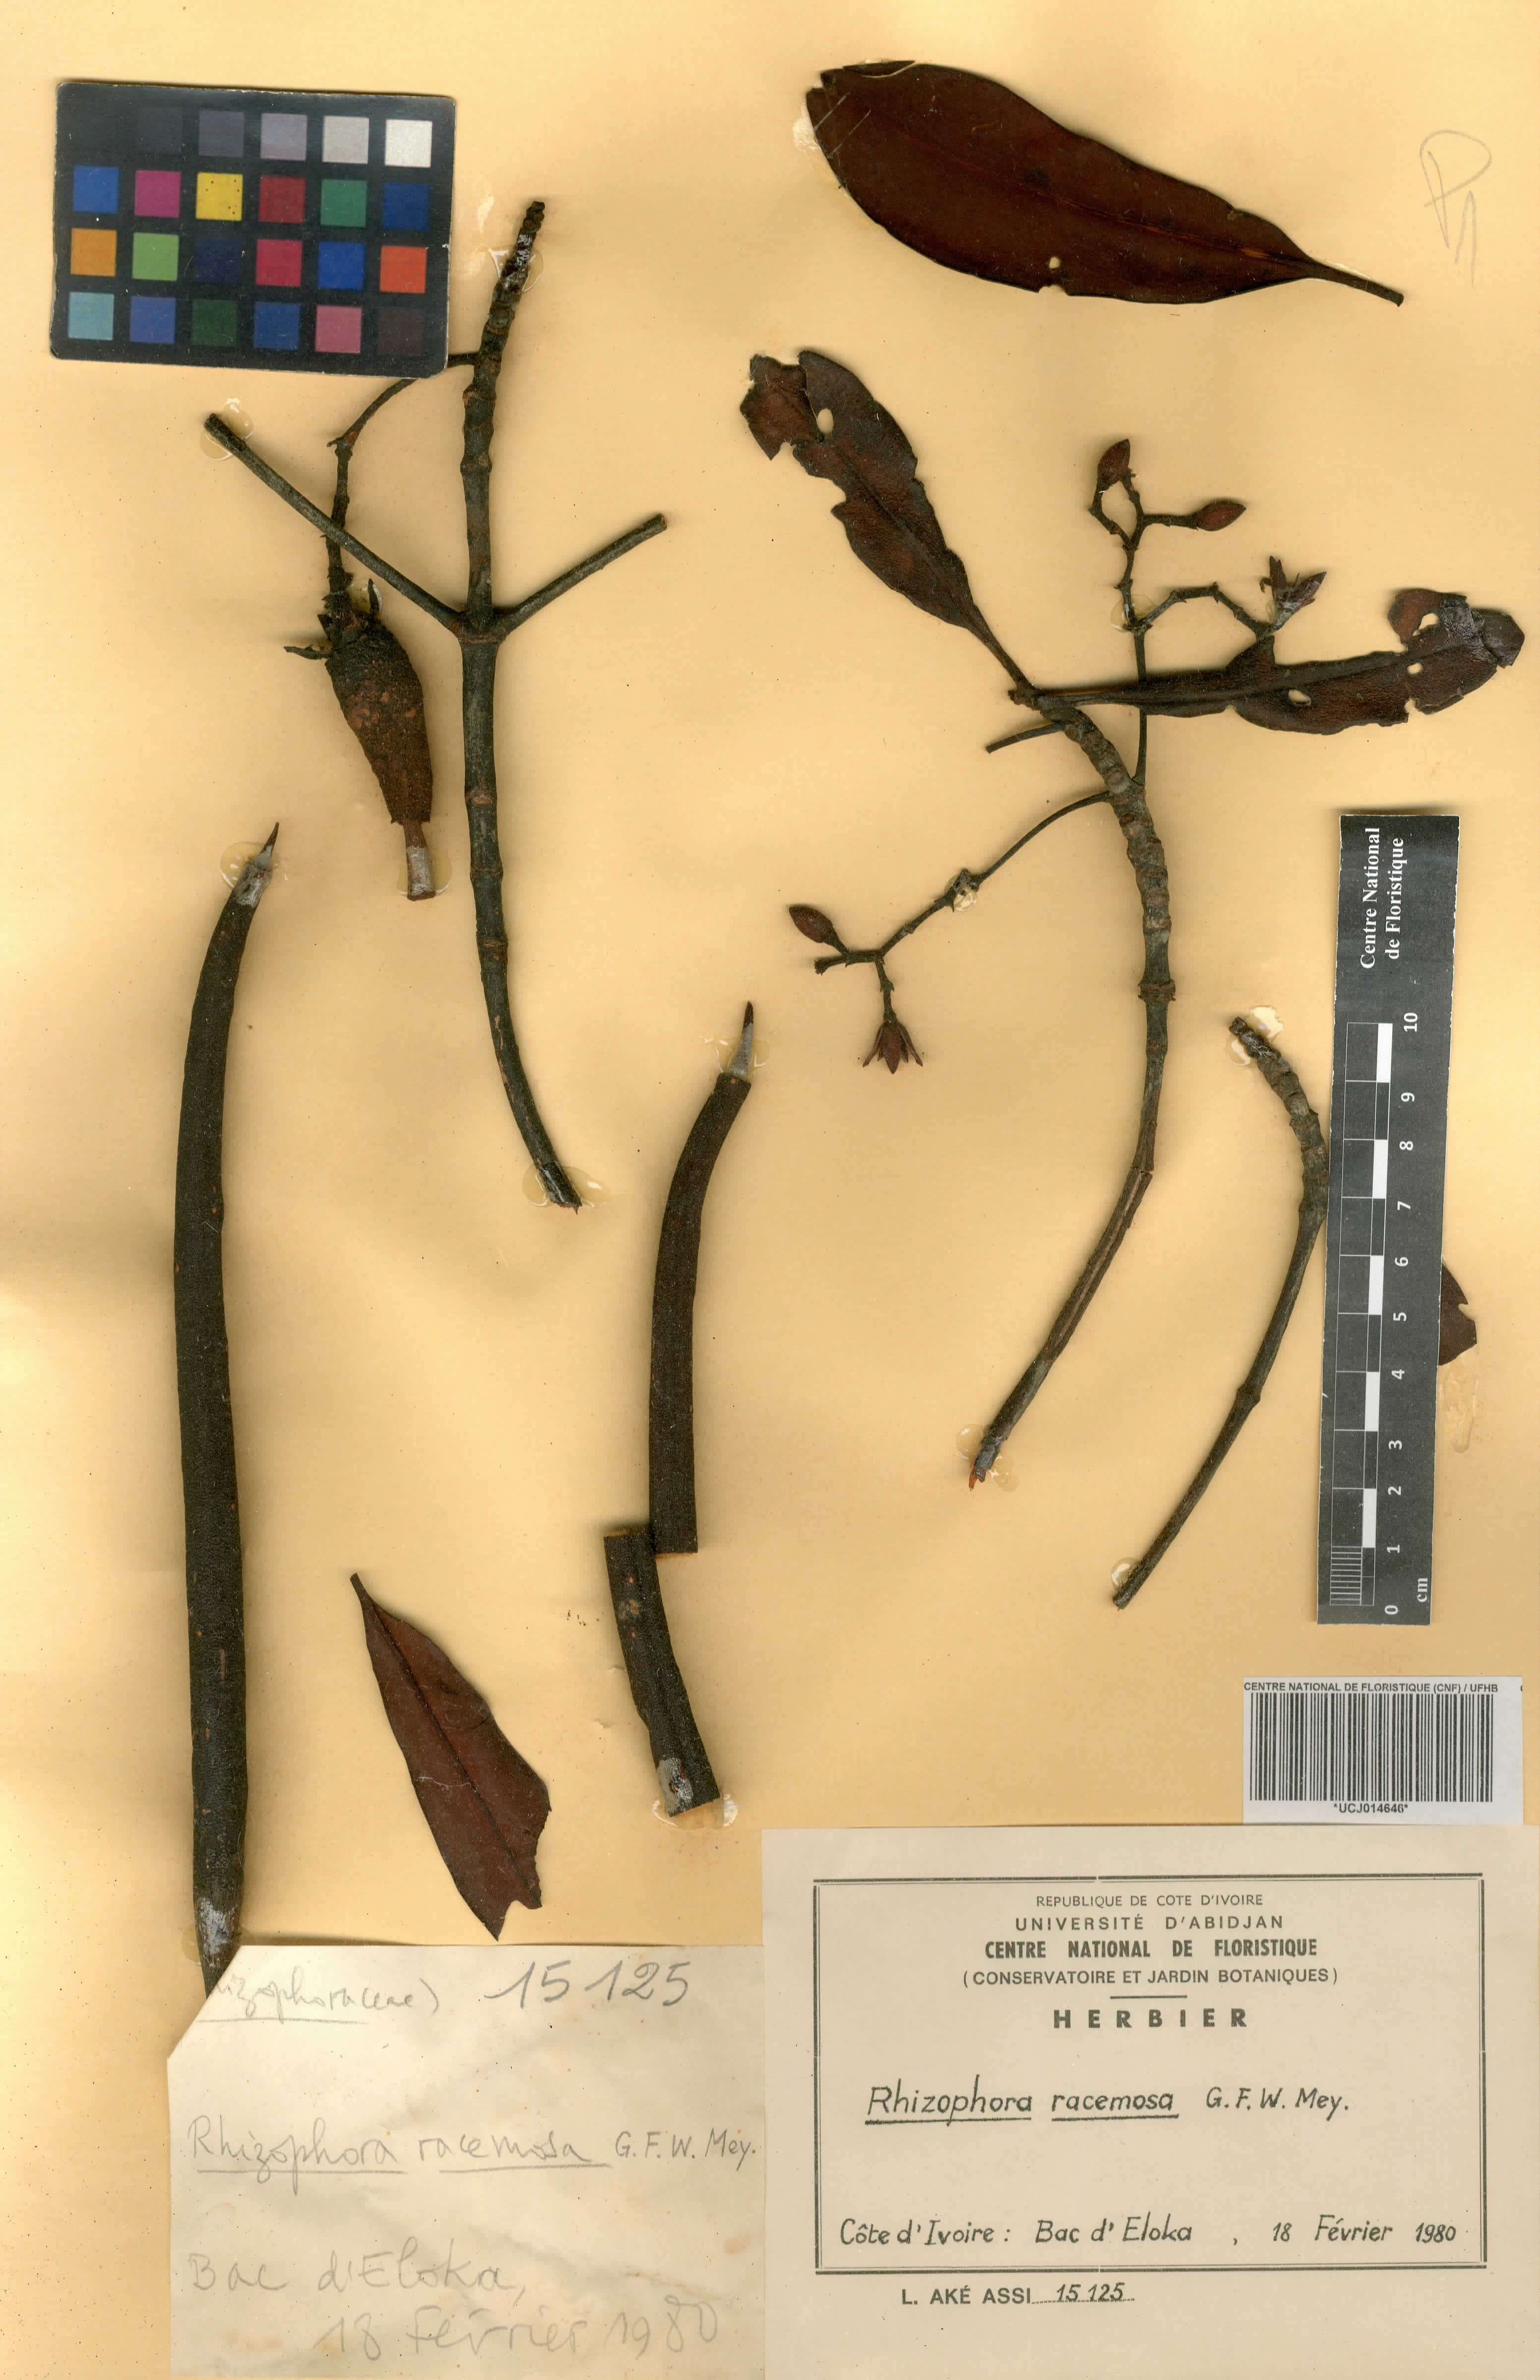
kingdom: Plantae
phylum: Tracheophyta
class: Magnoliopsida
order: Malpighiales
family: Rhizophoraceae
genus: Rhizophora
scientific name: Rhizophora racemosa
